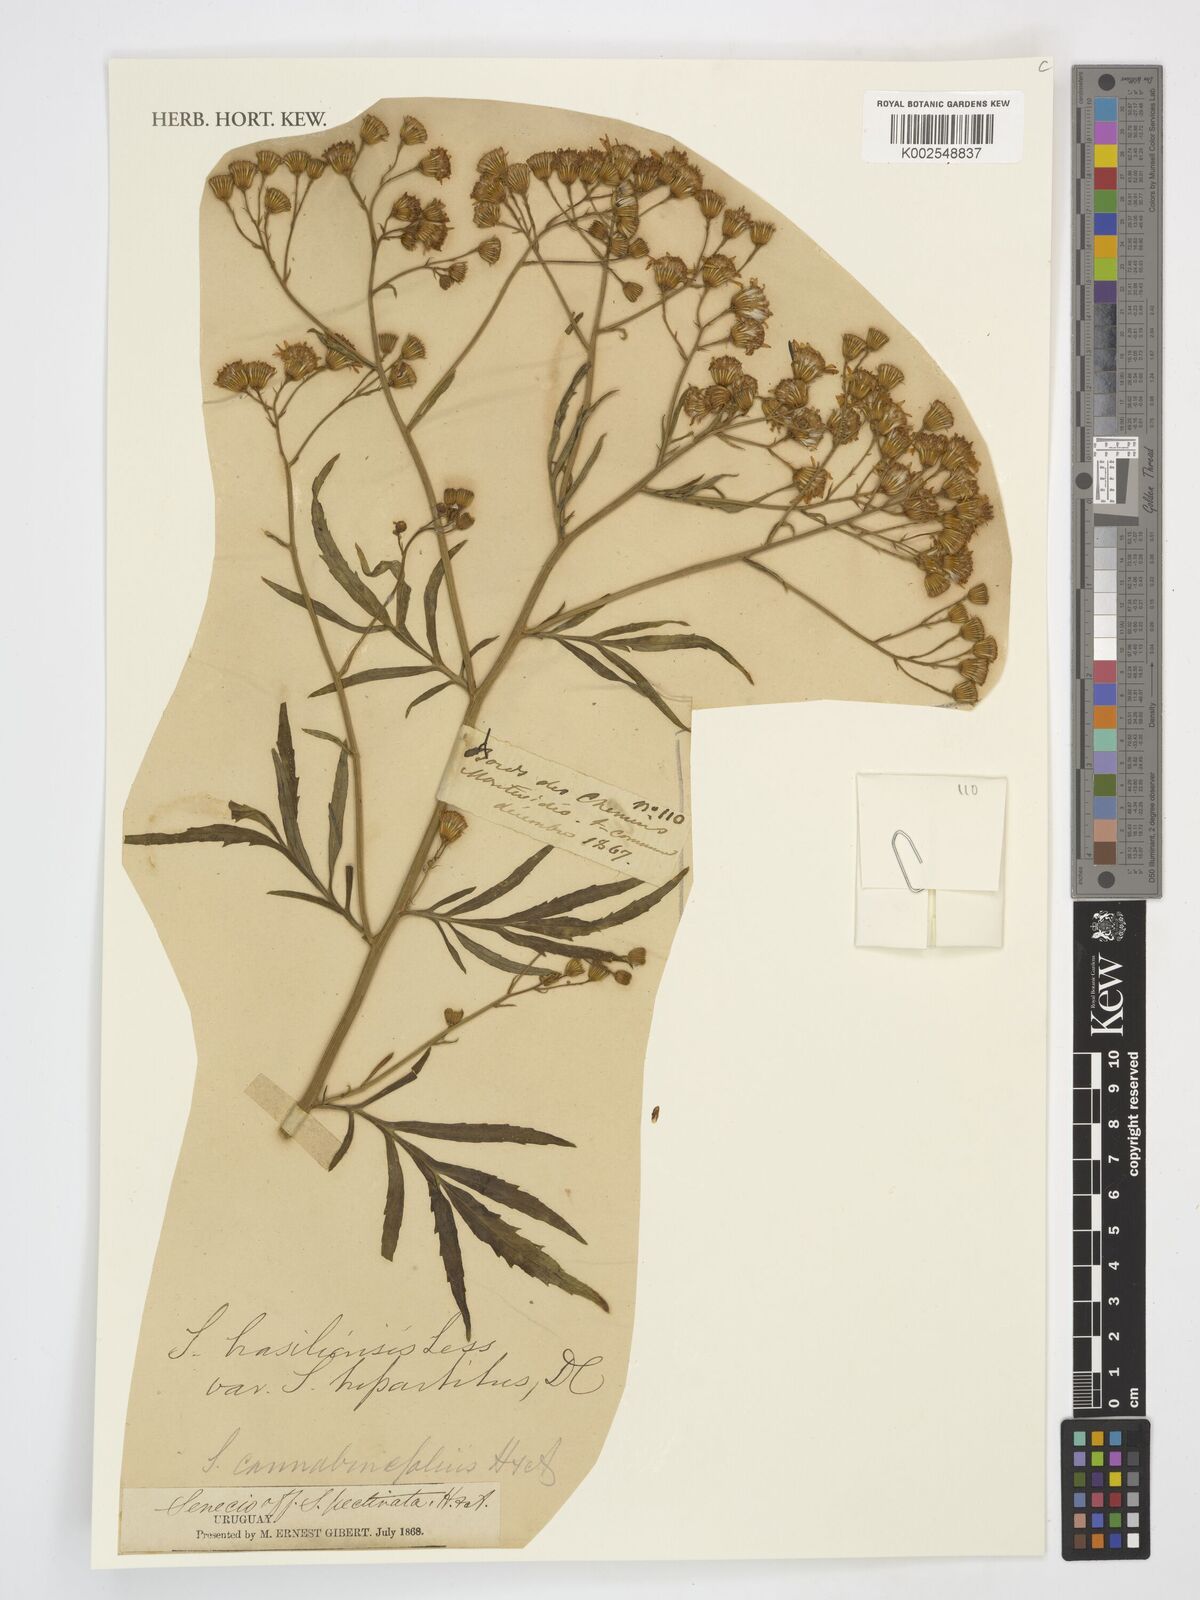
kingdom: Plantae
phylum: Tracheophyta
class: Magnoliopsida
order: Asterales
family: Asteraceae
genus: Senecio
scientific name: Senecio
